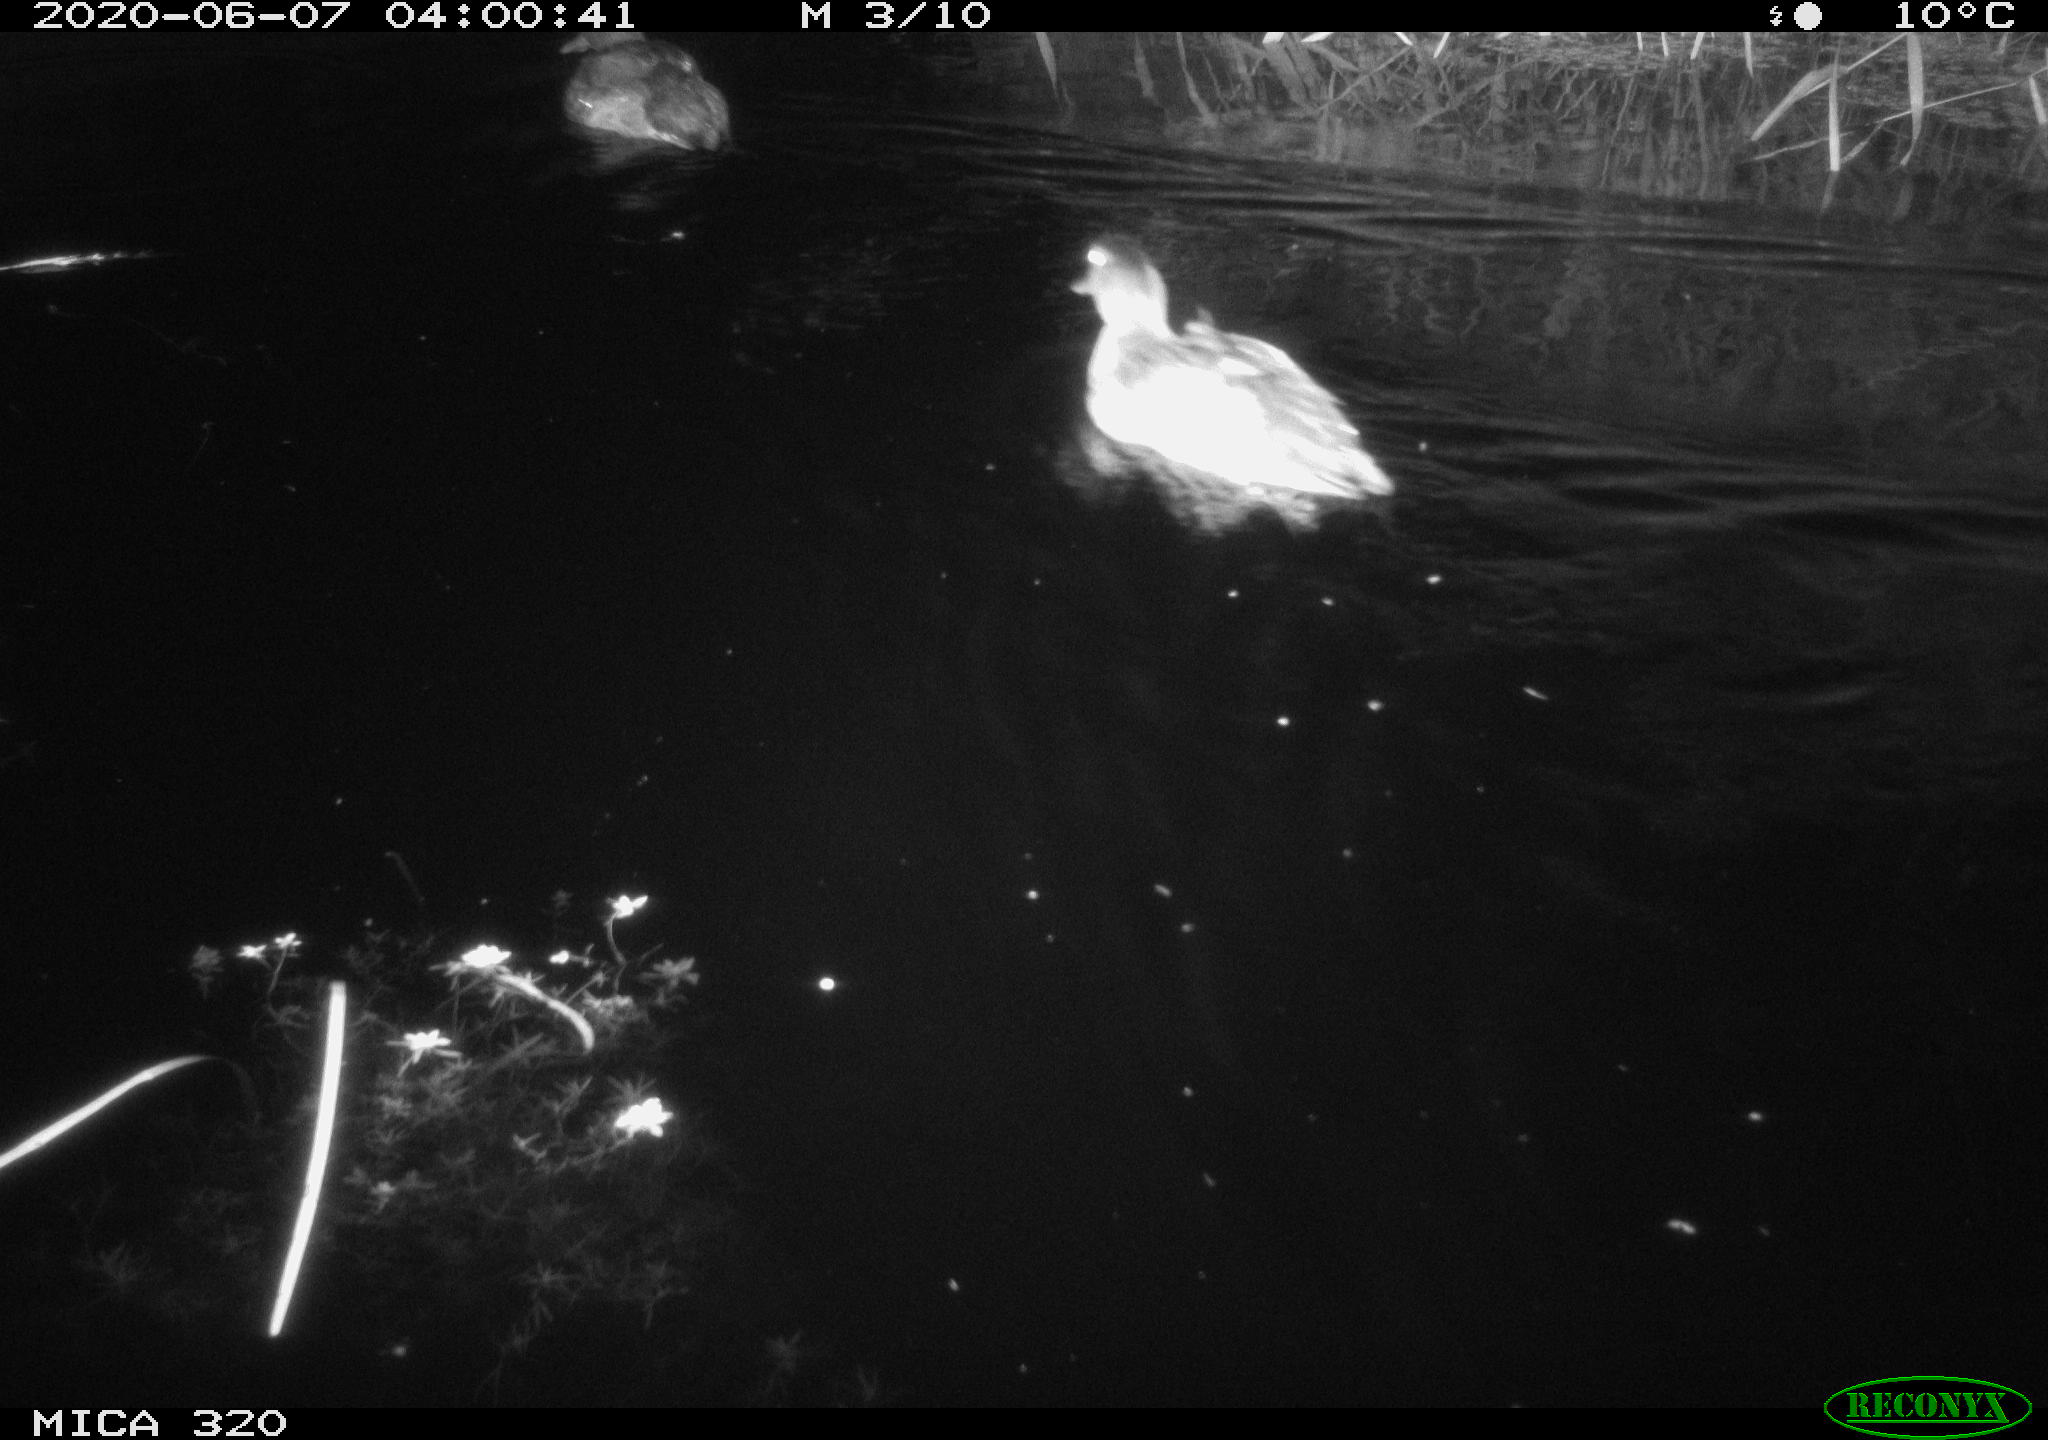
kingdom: Animalia
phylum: Chordata
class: Aves
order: Anseriformes
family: Anatidae
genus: Anas
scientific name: Anas platyrhynchos
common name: Mallard
